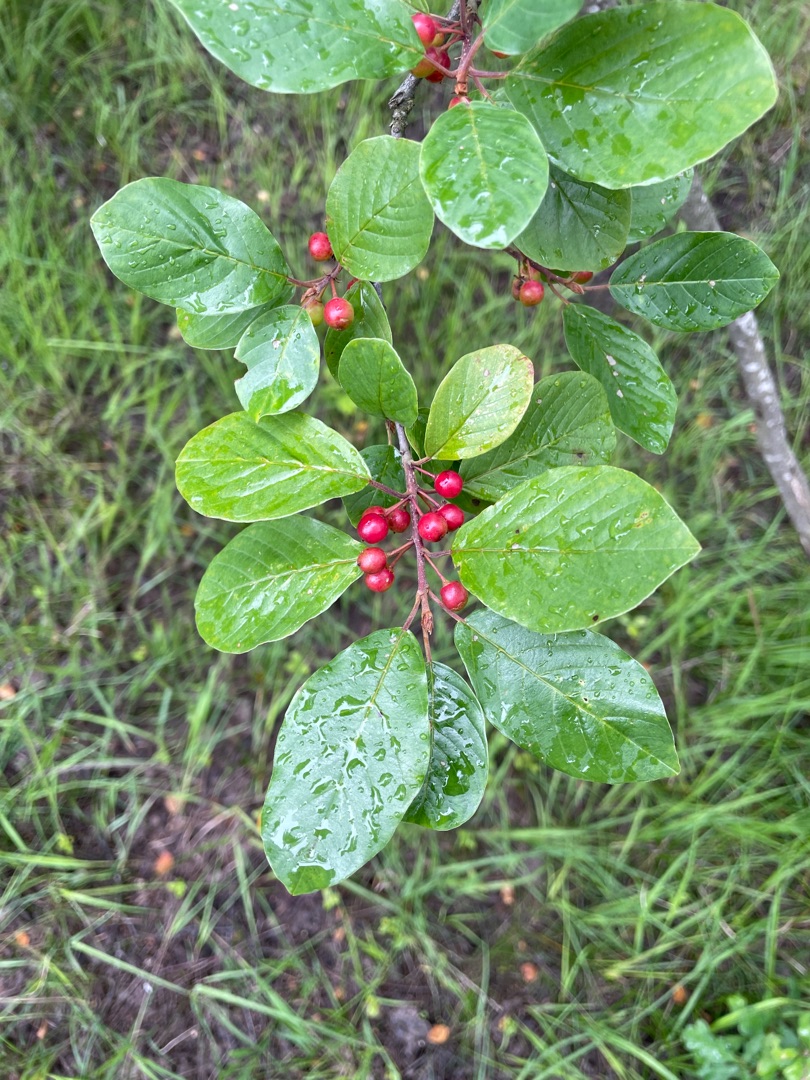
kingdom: Plantae
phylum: Tracheophyta
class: Magnoliopsida
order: Rosales
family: Rhamnaceae
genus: Frangula
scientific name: Frangula alnus
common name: Tørst
